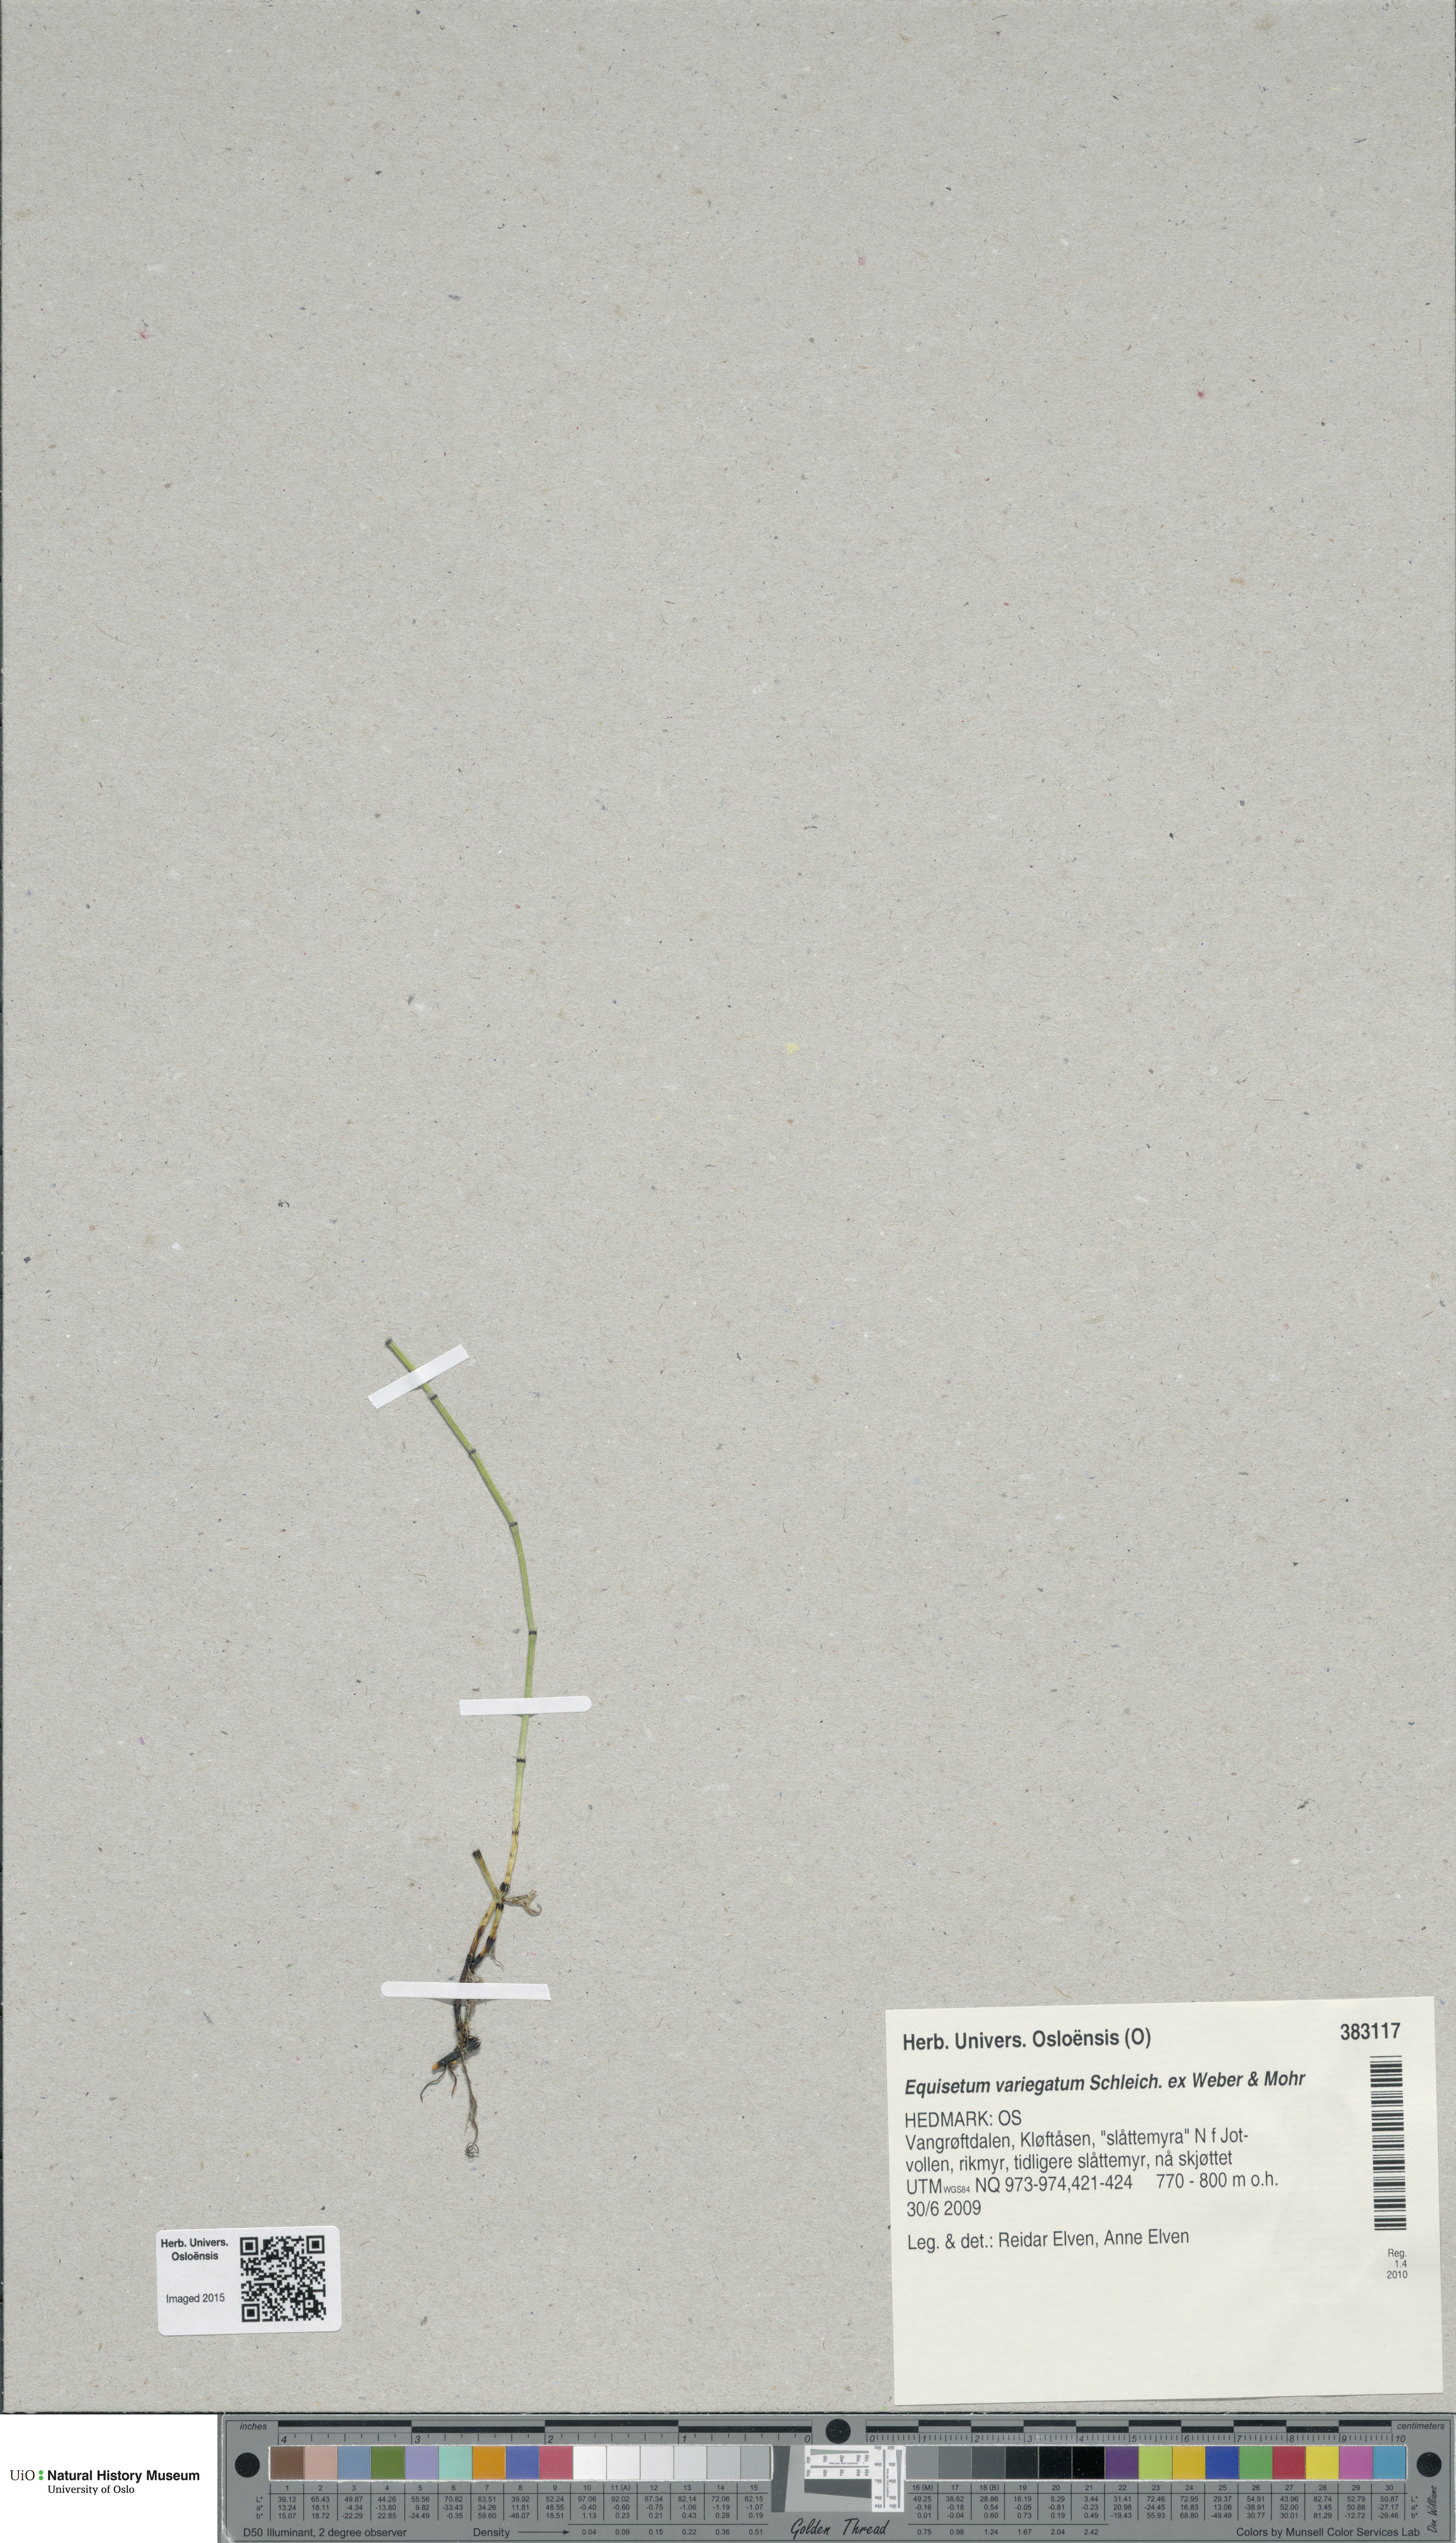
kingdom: Plantae
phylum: Tracheophyta
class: Polypodiopsida
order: Equisetales
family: Equisetaceae
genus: Equisetum
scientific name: Equisetum variegatum
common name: Variegated horsetail
